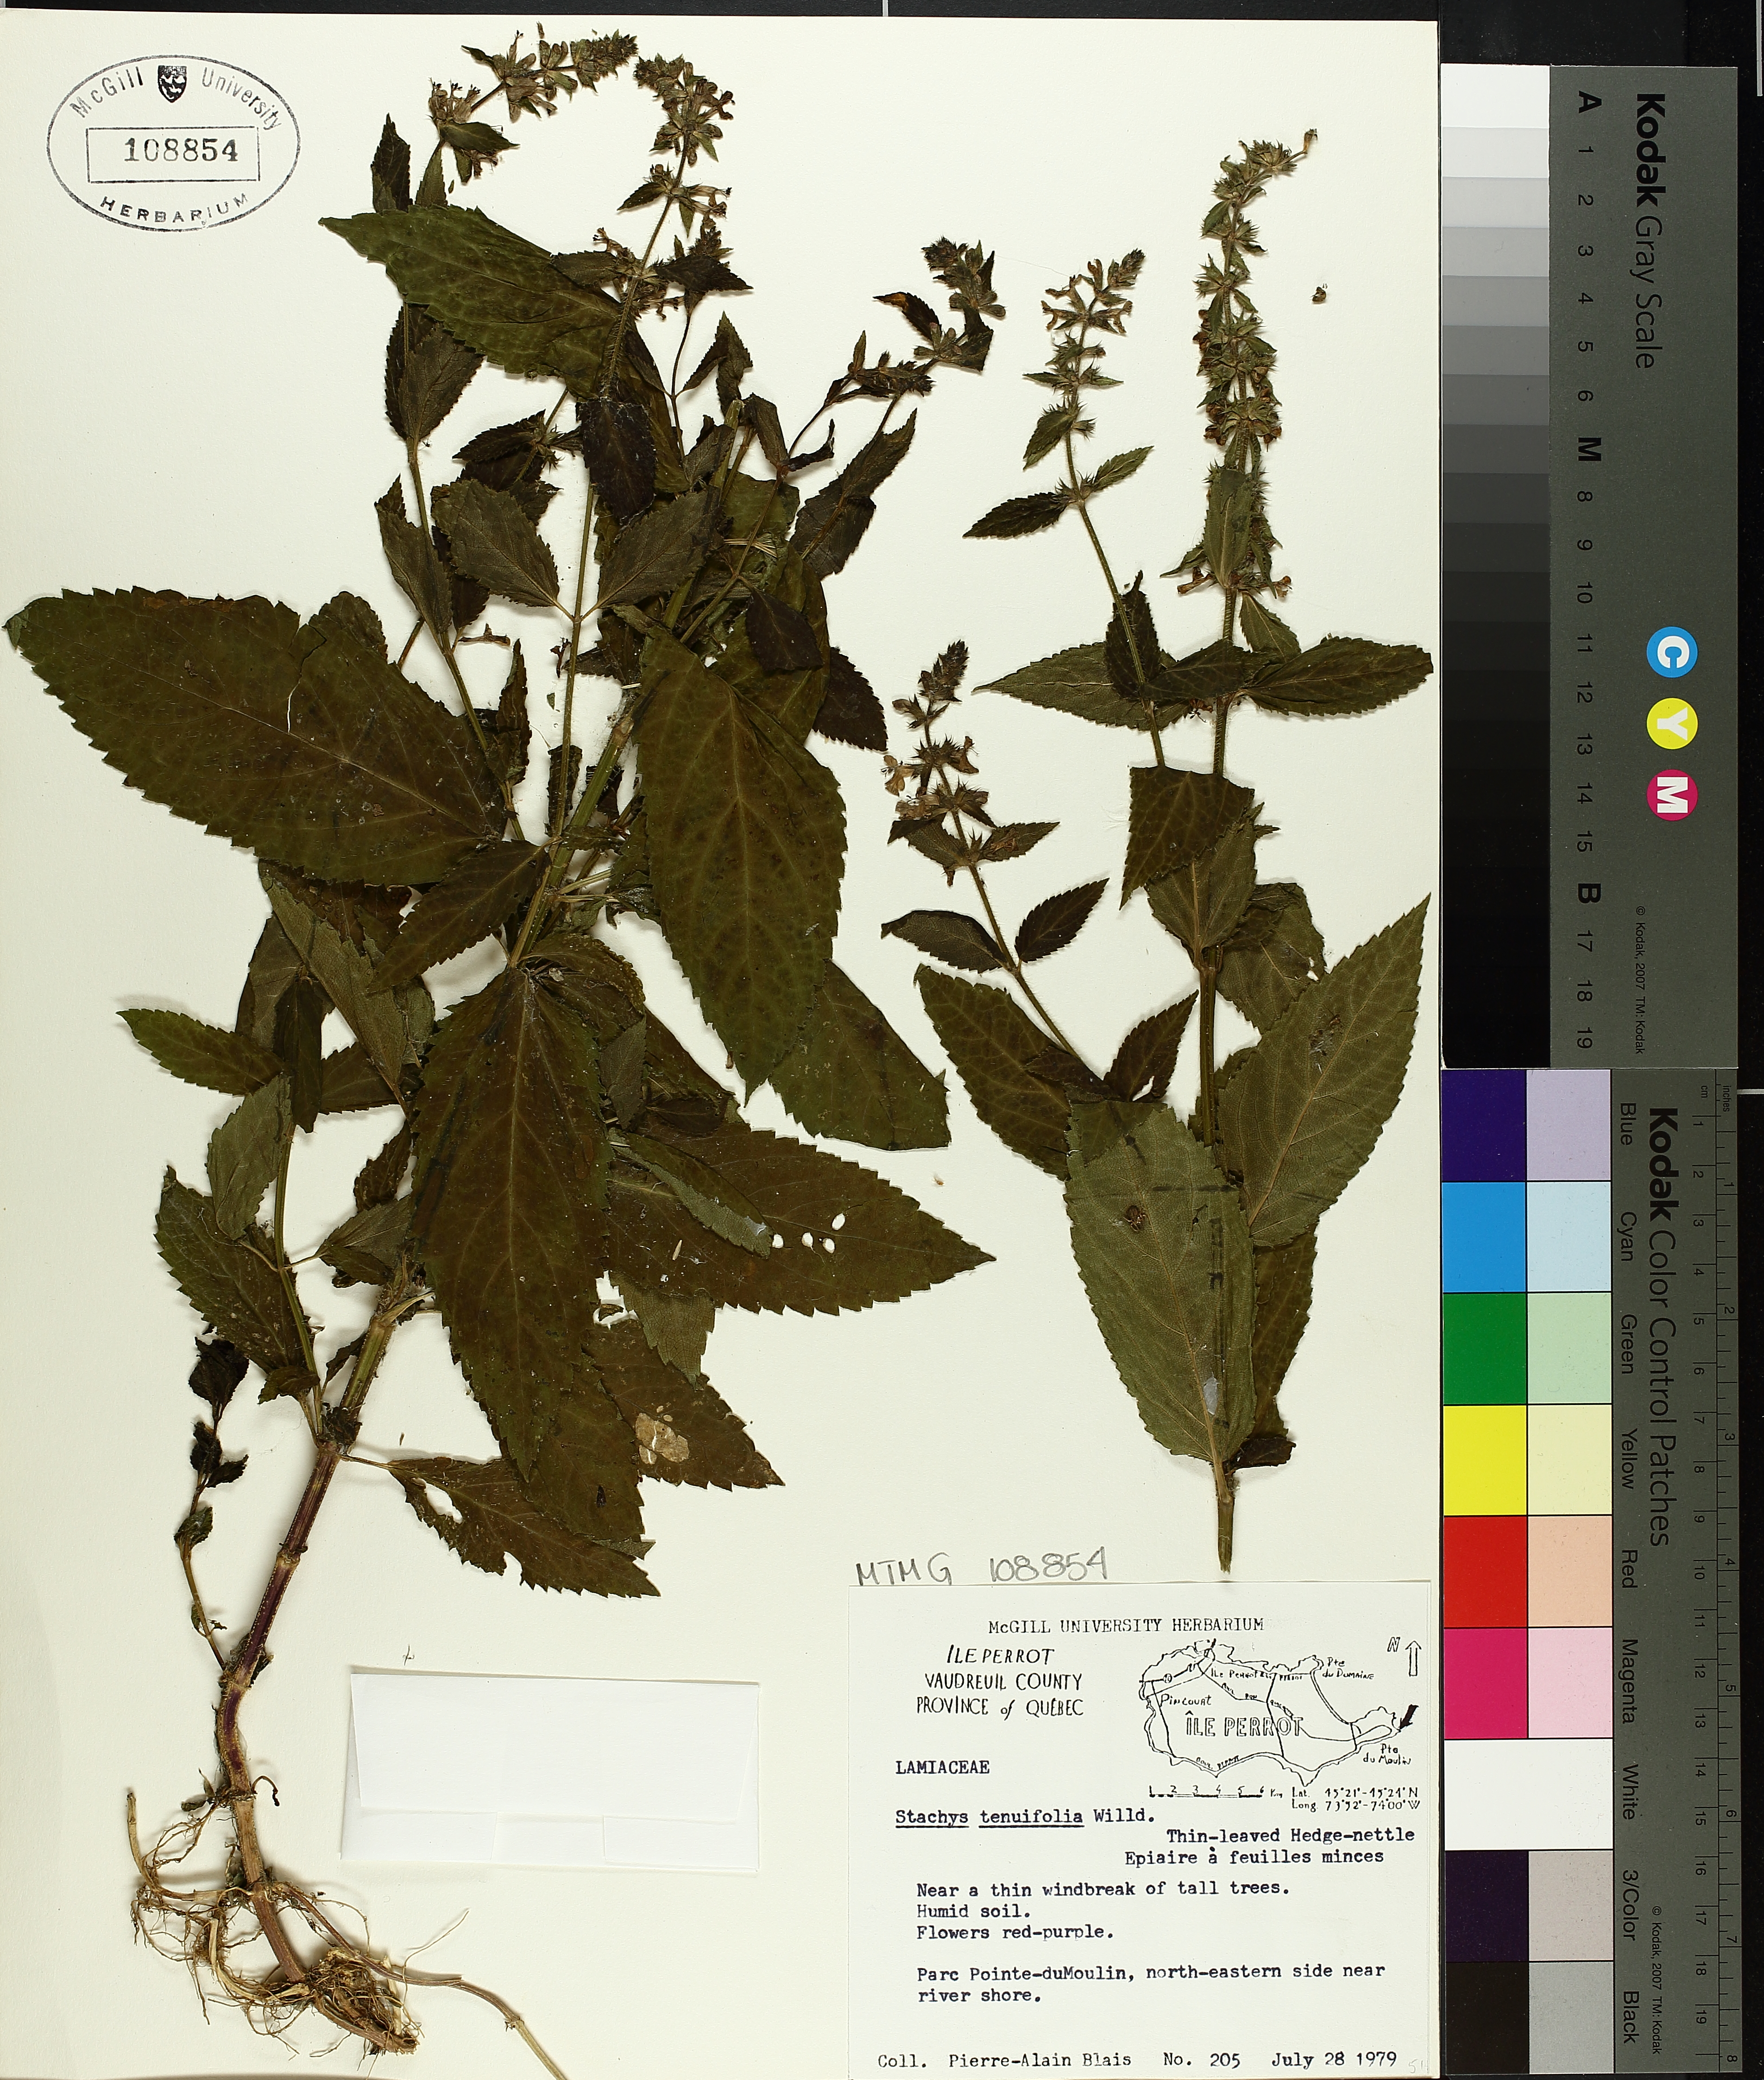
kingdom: Plantae
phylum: Tracheophyta
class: Magnoliopsida
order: Lamiales
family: Lamiaceae
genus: Stachys
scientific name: Stachys tenuifolia
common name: Smooth hedge-nettle
